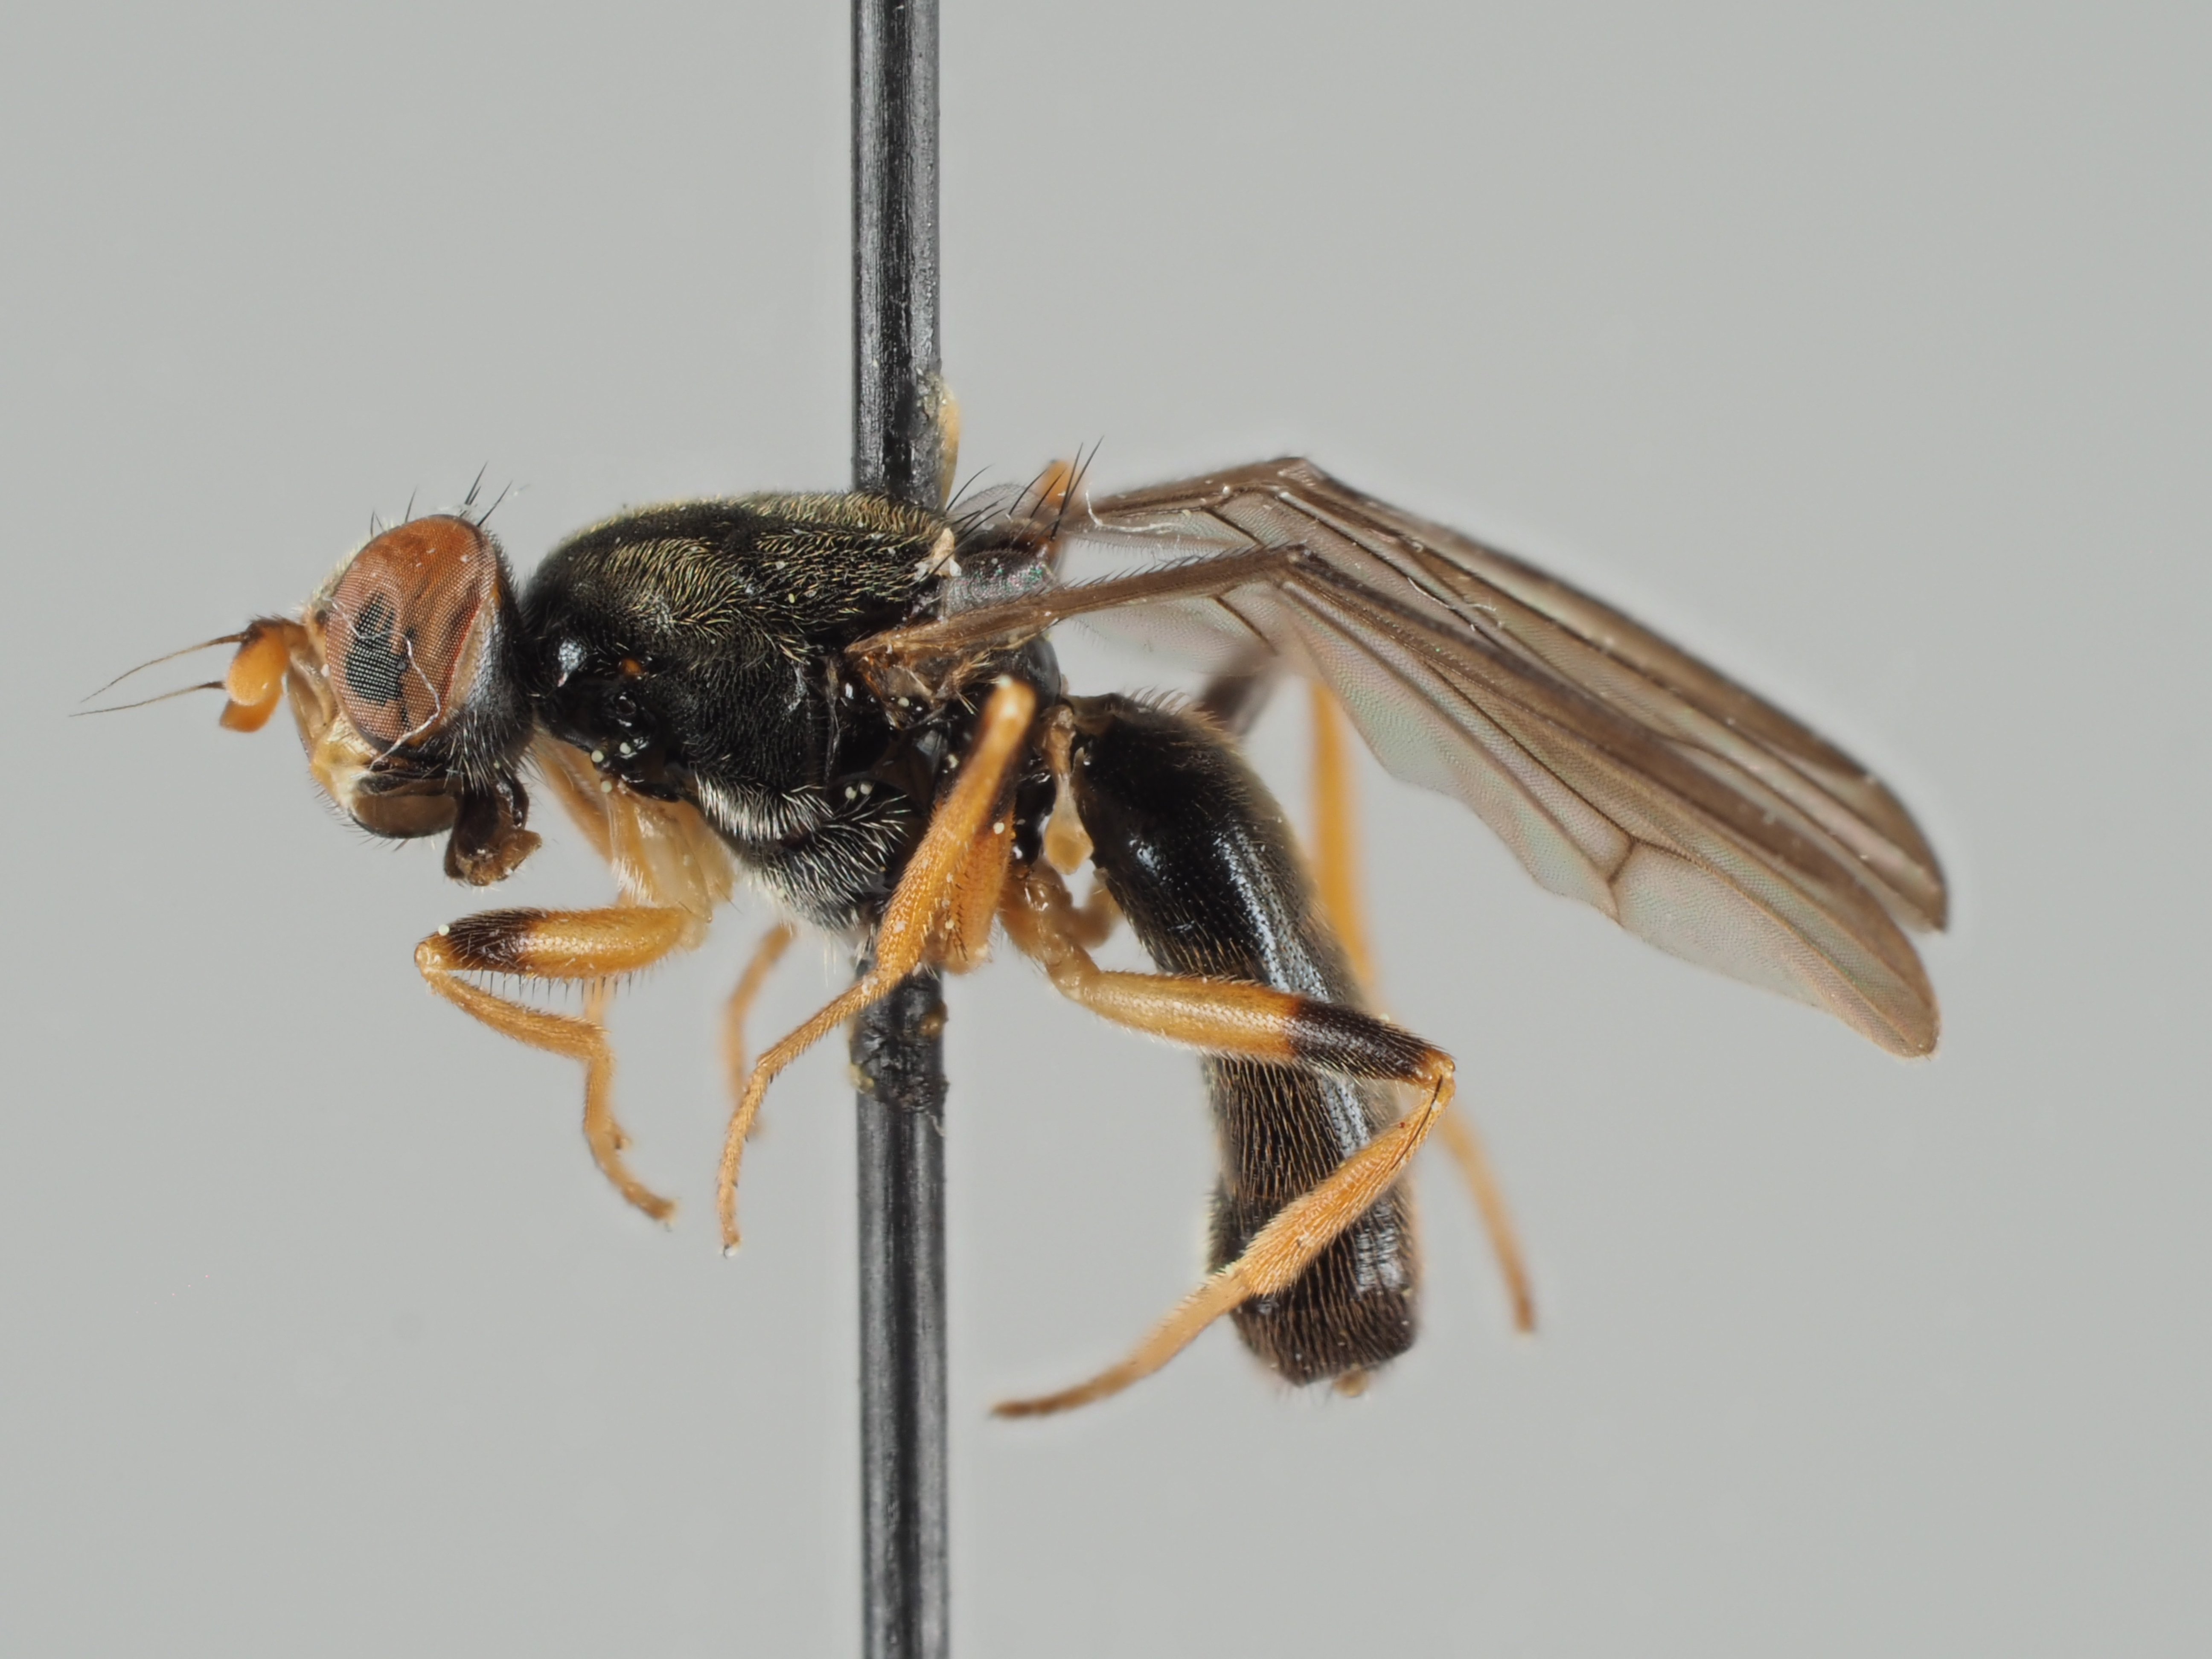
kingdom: Animalia
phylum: Arthropoda
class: Insecta
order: Diptera
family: Psilidae
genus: Chyliza
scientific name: Chyliza annulipes
